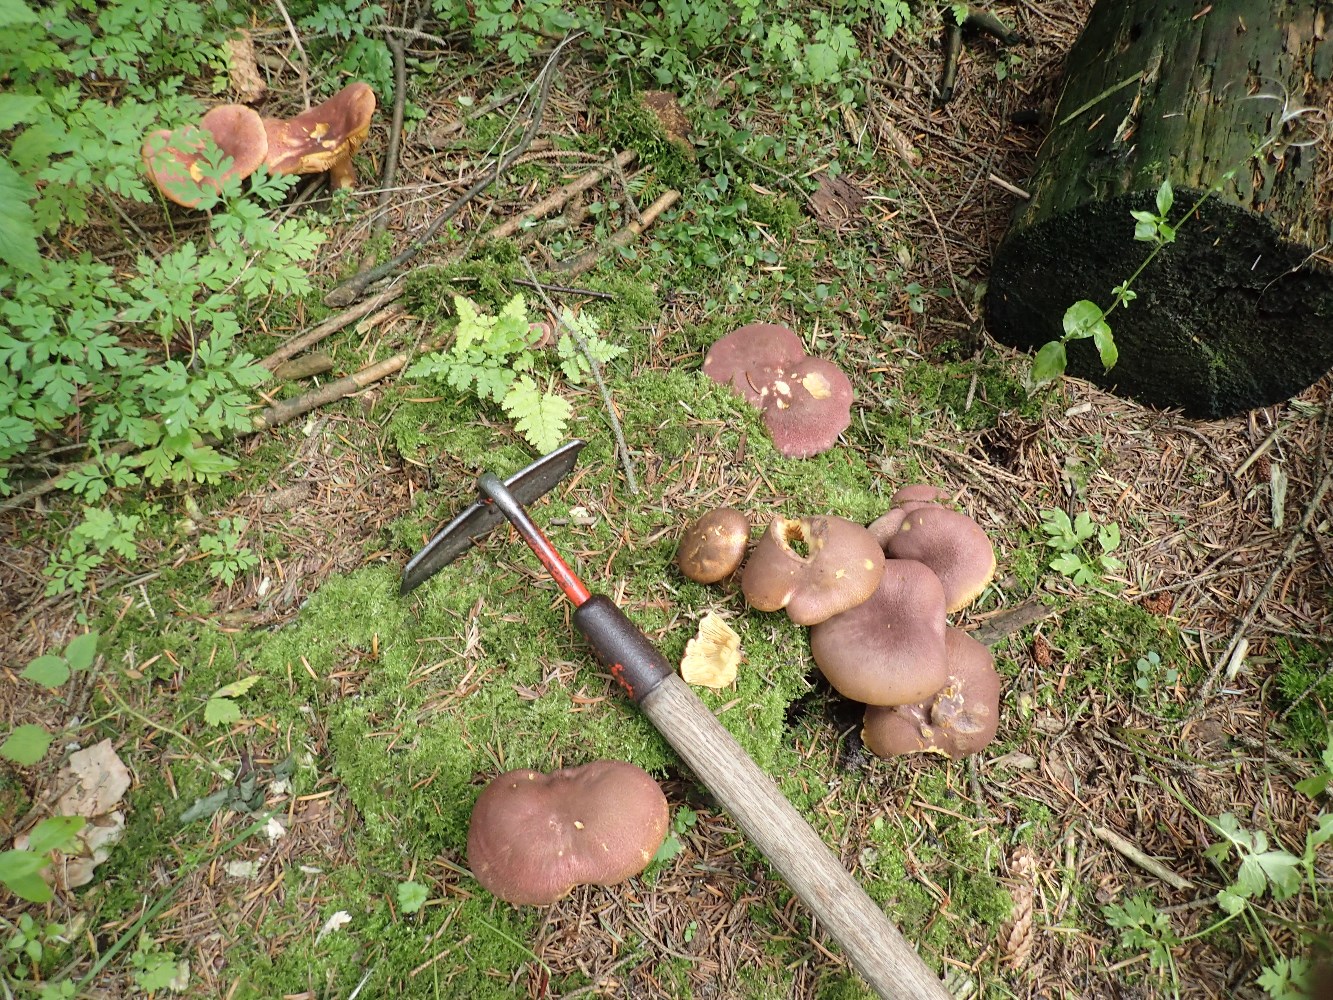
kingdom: Fungi
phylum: Basidiomycota
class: Agaricomycetes
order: Agaricales
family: Tricholomataceae
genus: Tricholomopsis
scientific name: Tricholomopsis rutilans
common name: purpur-væbnerhat
